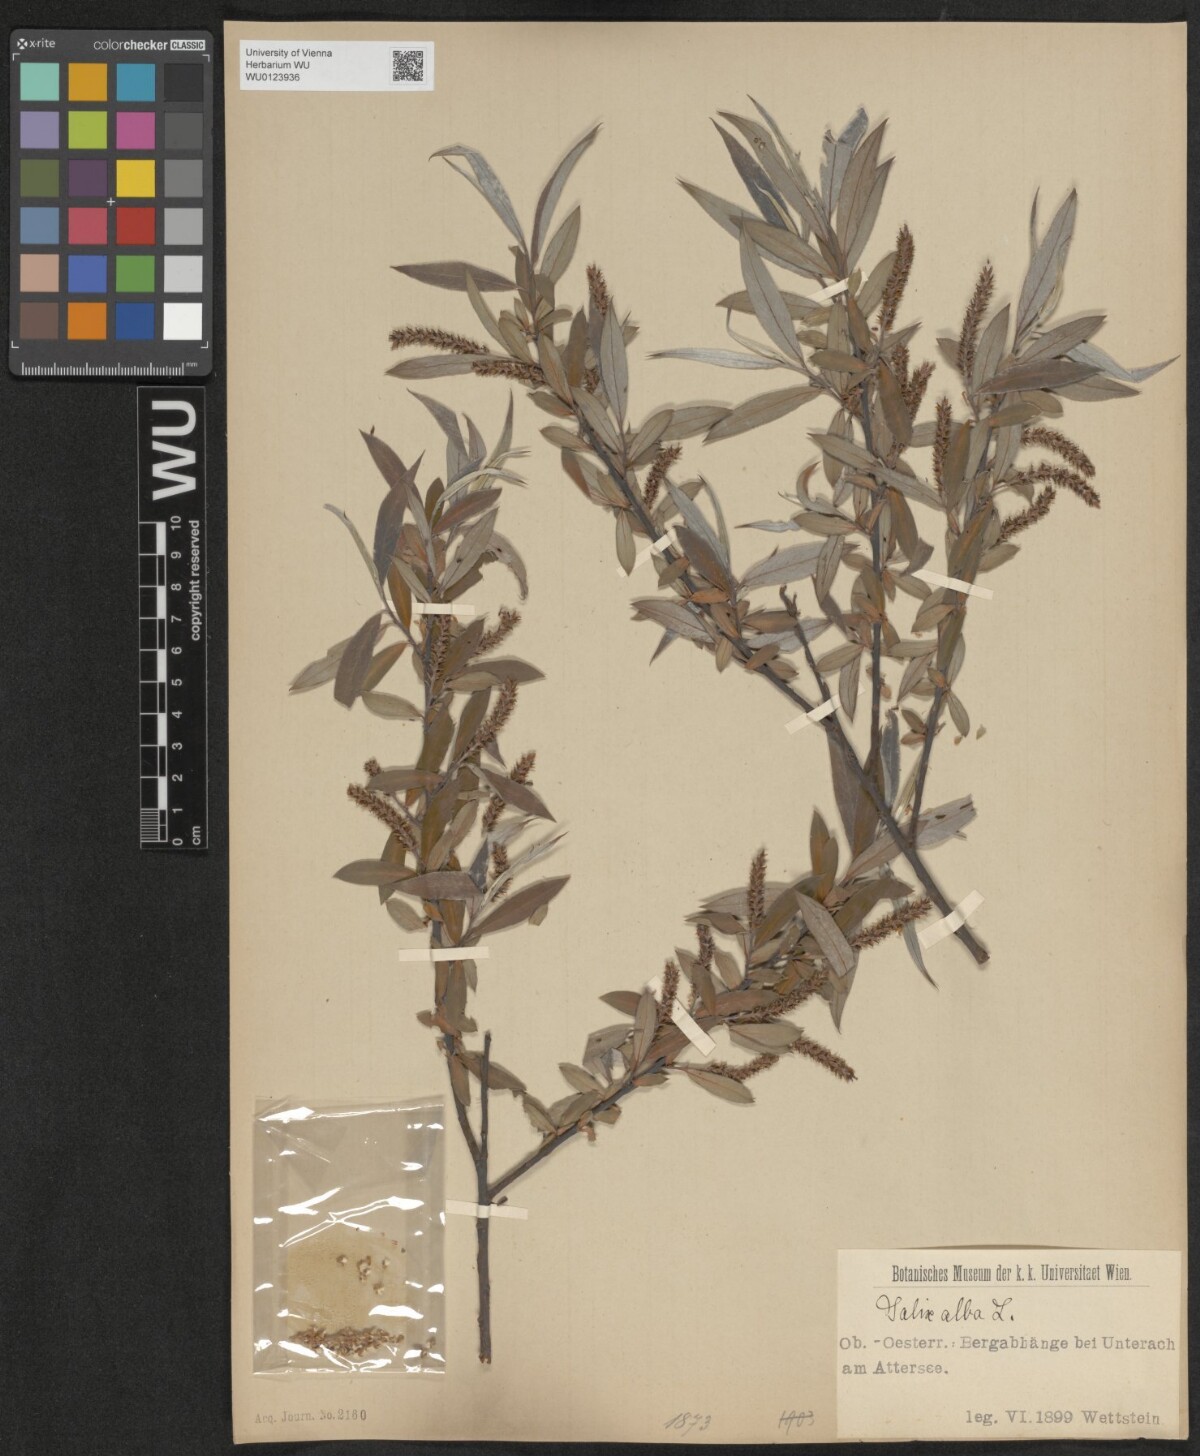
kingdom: Plantae
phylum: Tracheophyta
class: Magnoliopsida
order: Malpighiales
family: Salicaceae
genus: Salix
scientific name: Salix alba
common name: White willow
